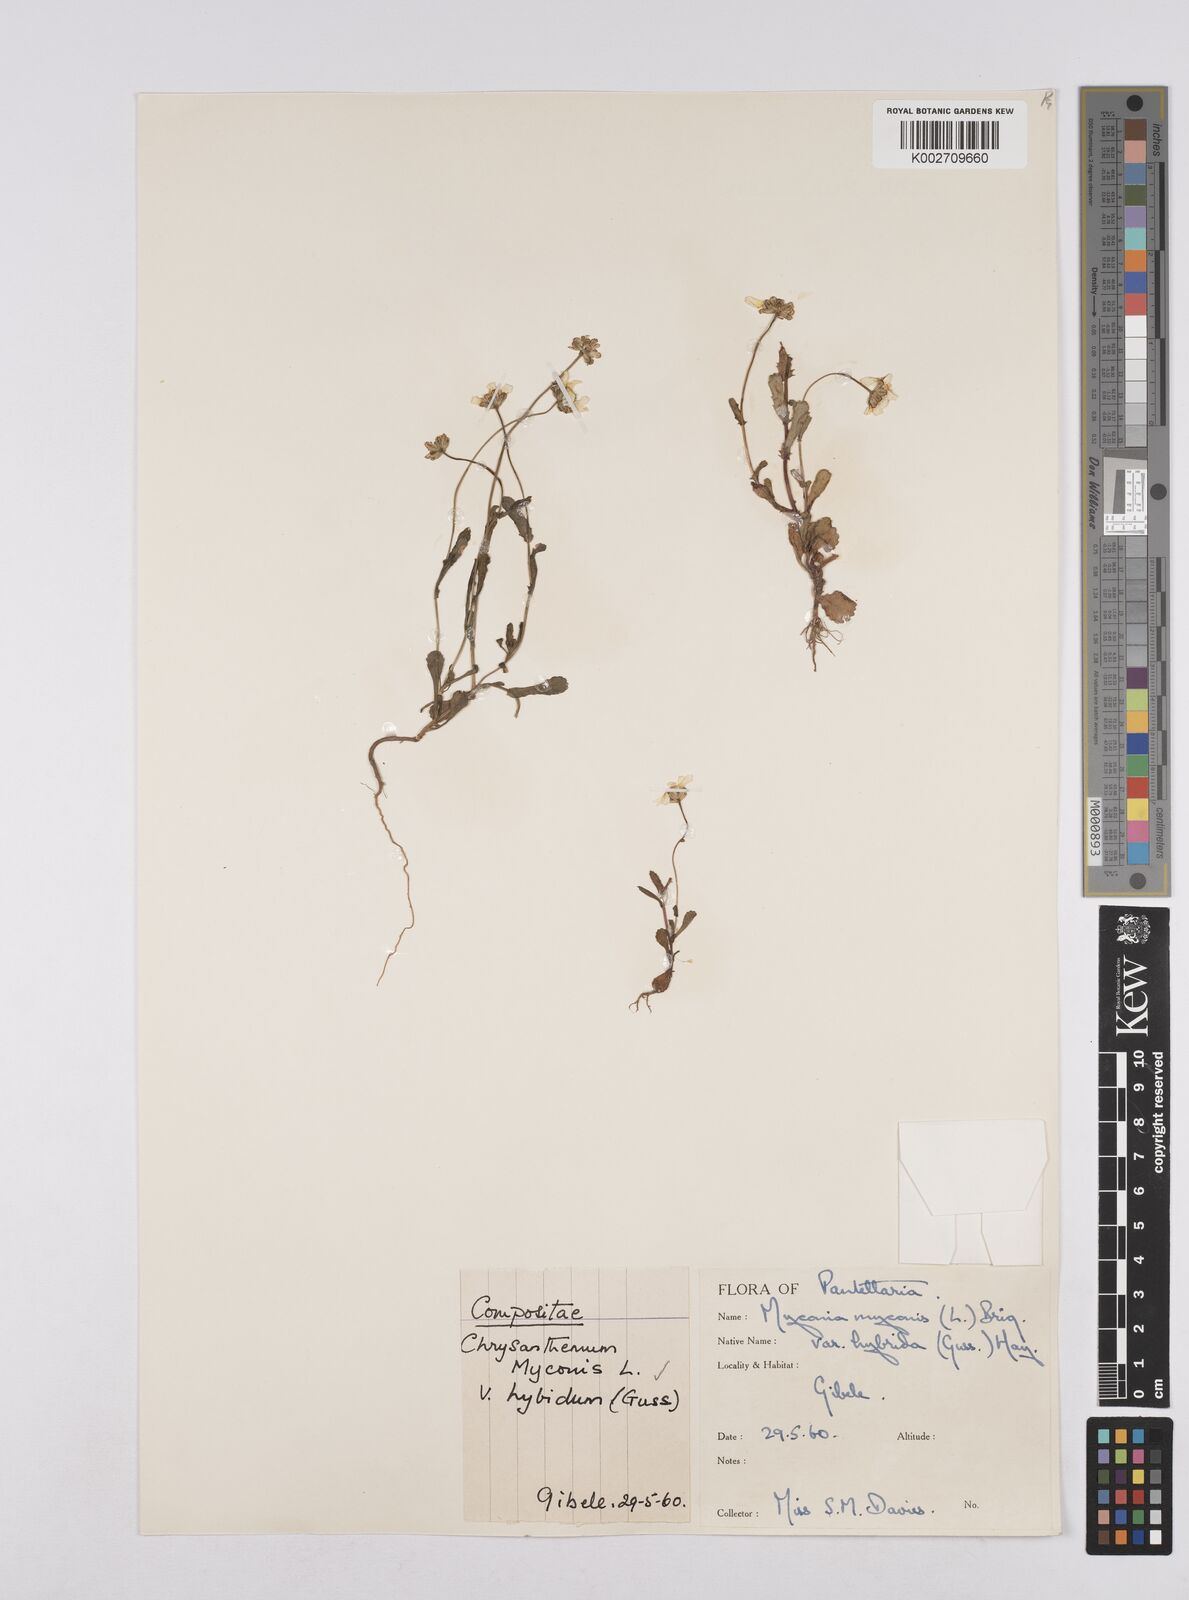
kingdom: Plantae
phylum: Tracheophyta
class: Magnoliopsida
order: Asterales
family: Asteraceae
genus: Coleostephus
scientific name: Coleostephus myconis
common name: Mediterranean marigold
